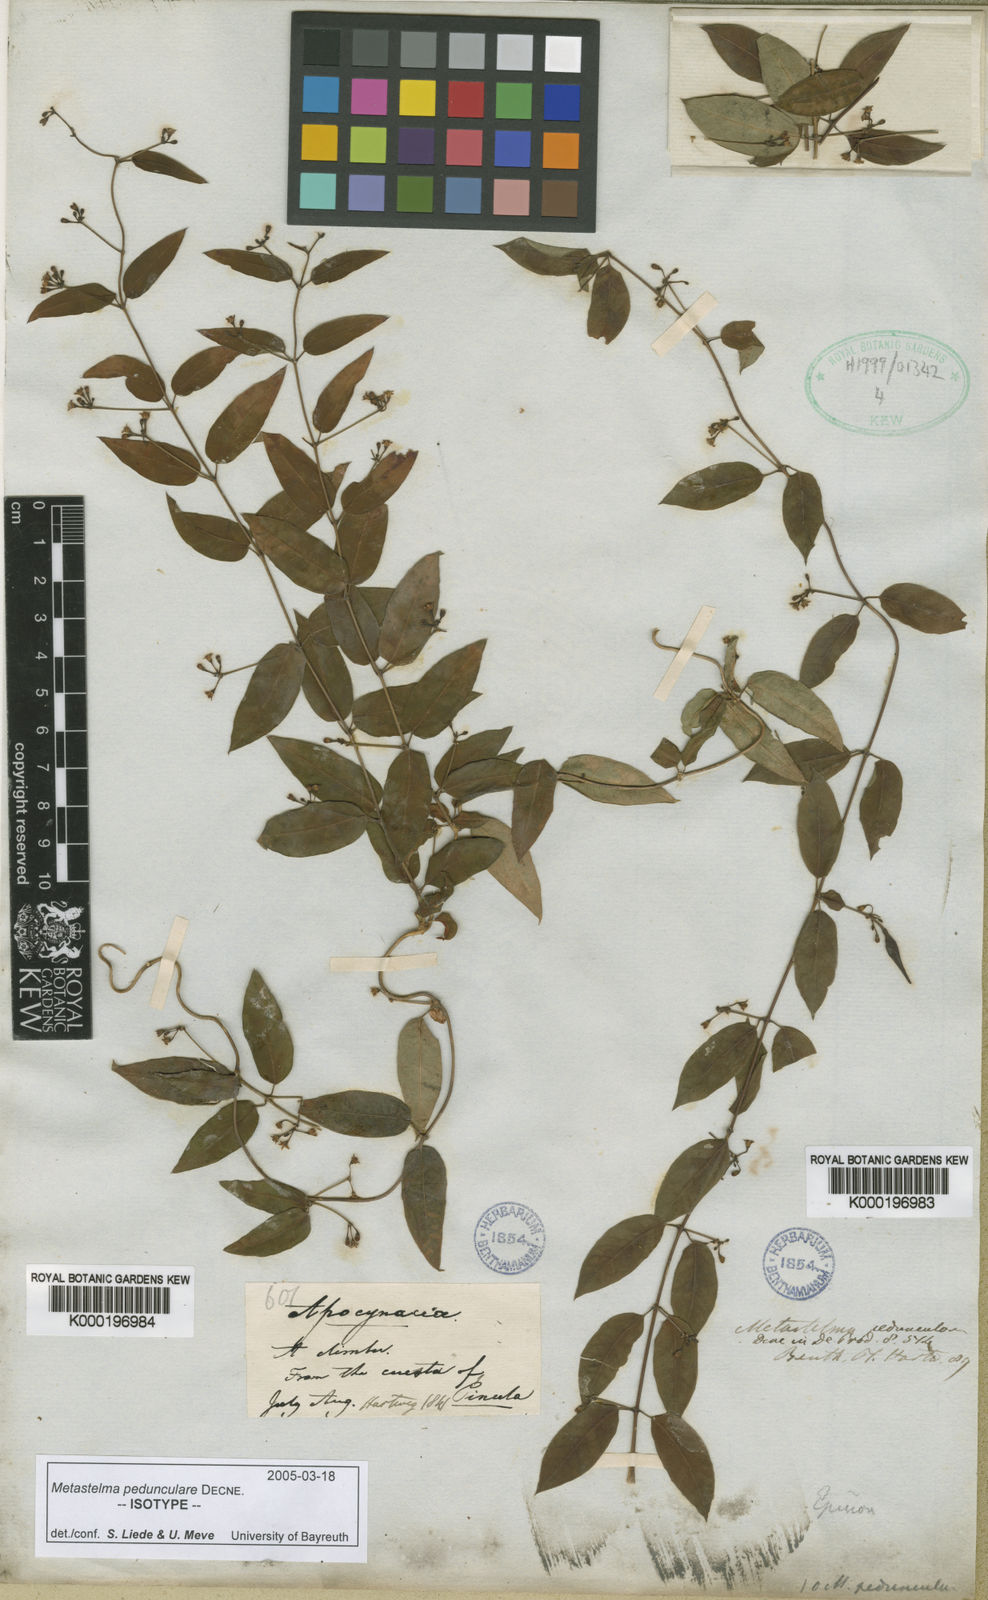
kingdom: Plantae
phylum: Tracheophyta
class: Magnoliopsida
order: Gentianales
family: Apocynaceae
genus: Metastelma
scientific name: Metastelma pedunculare
